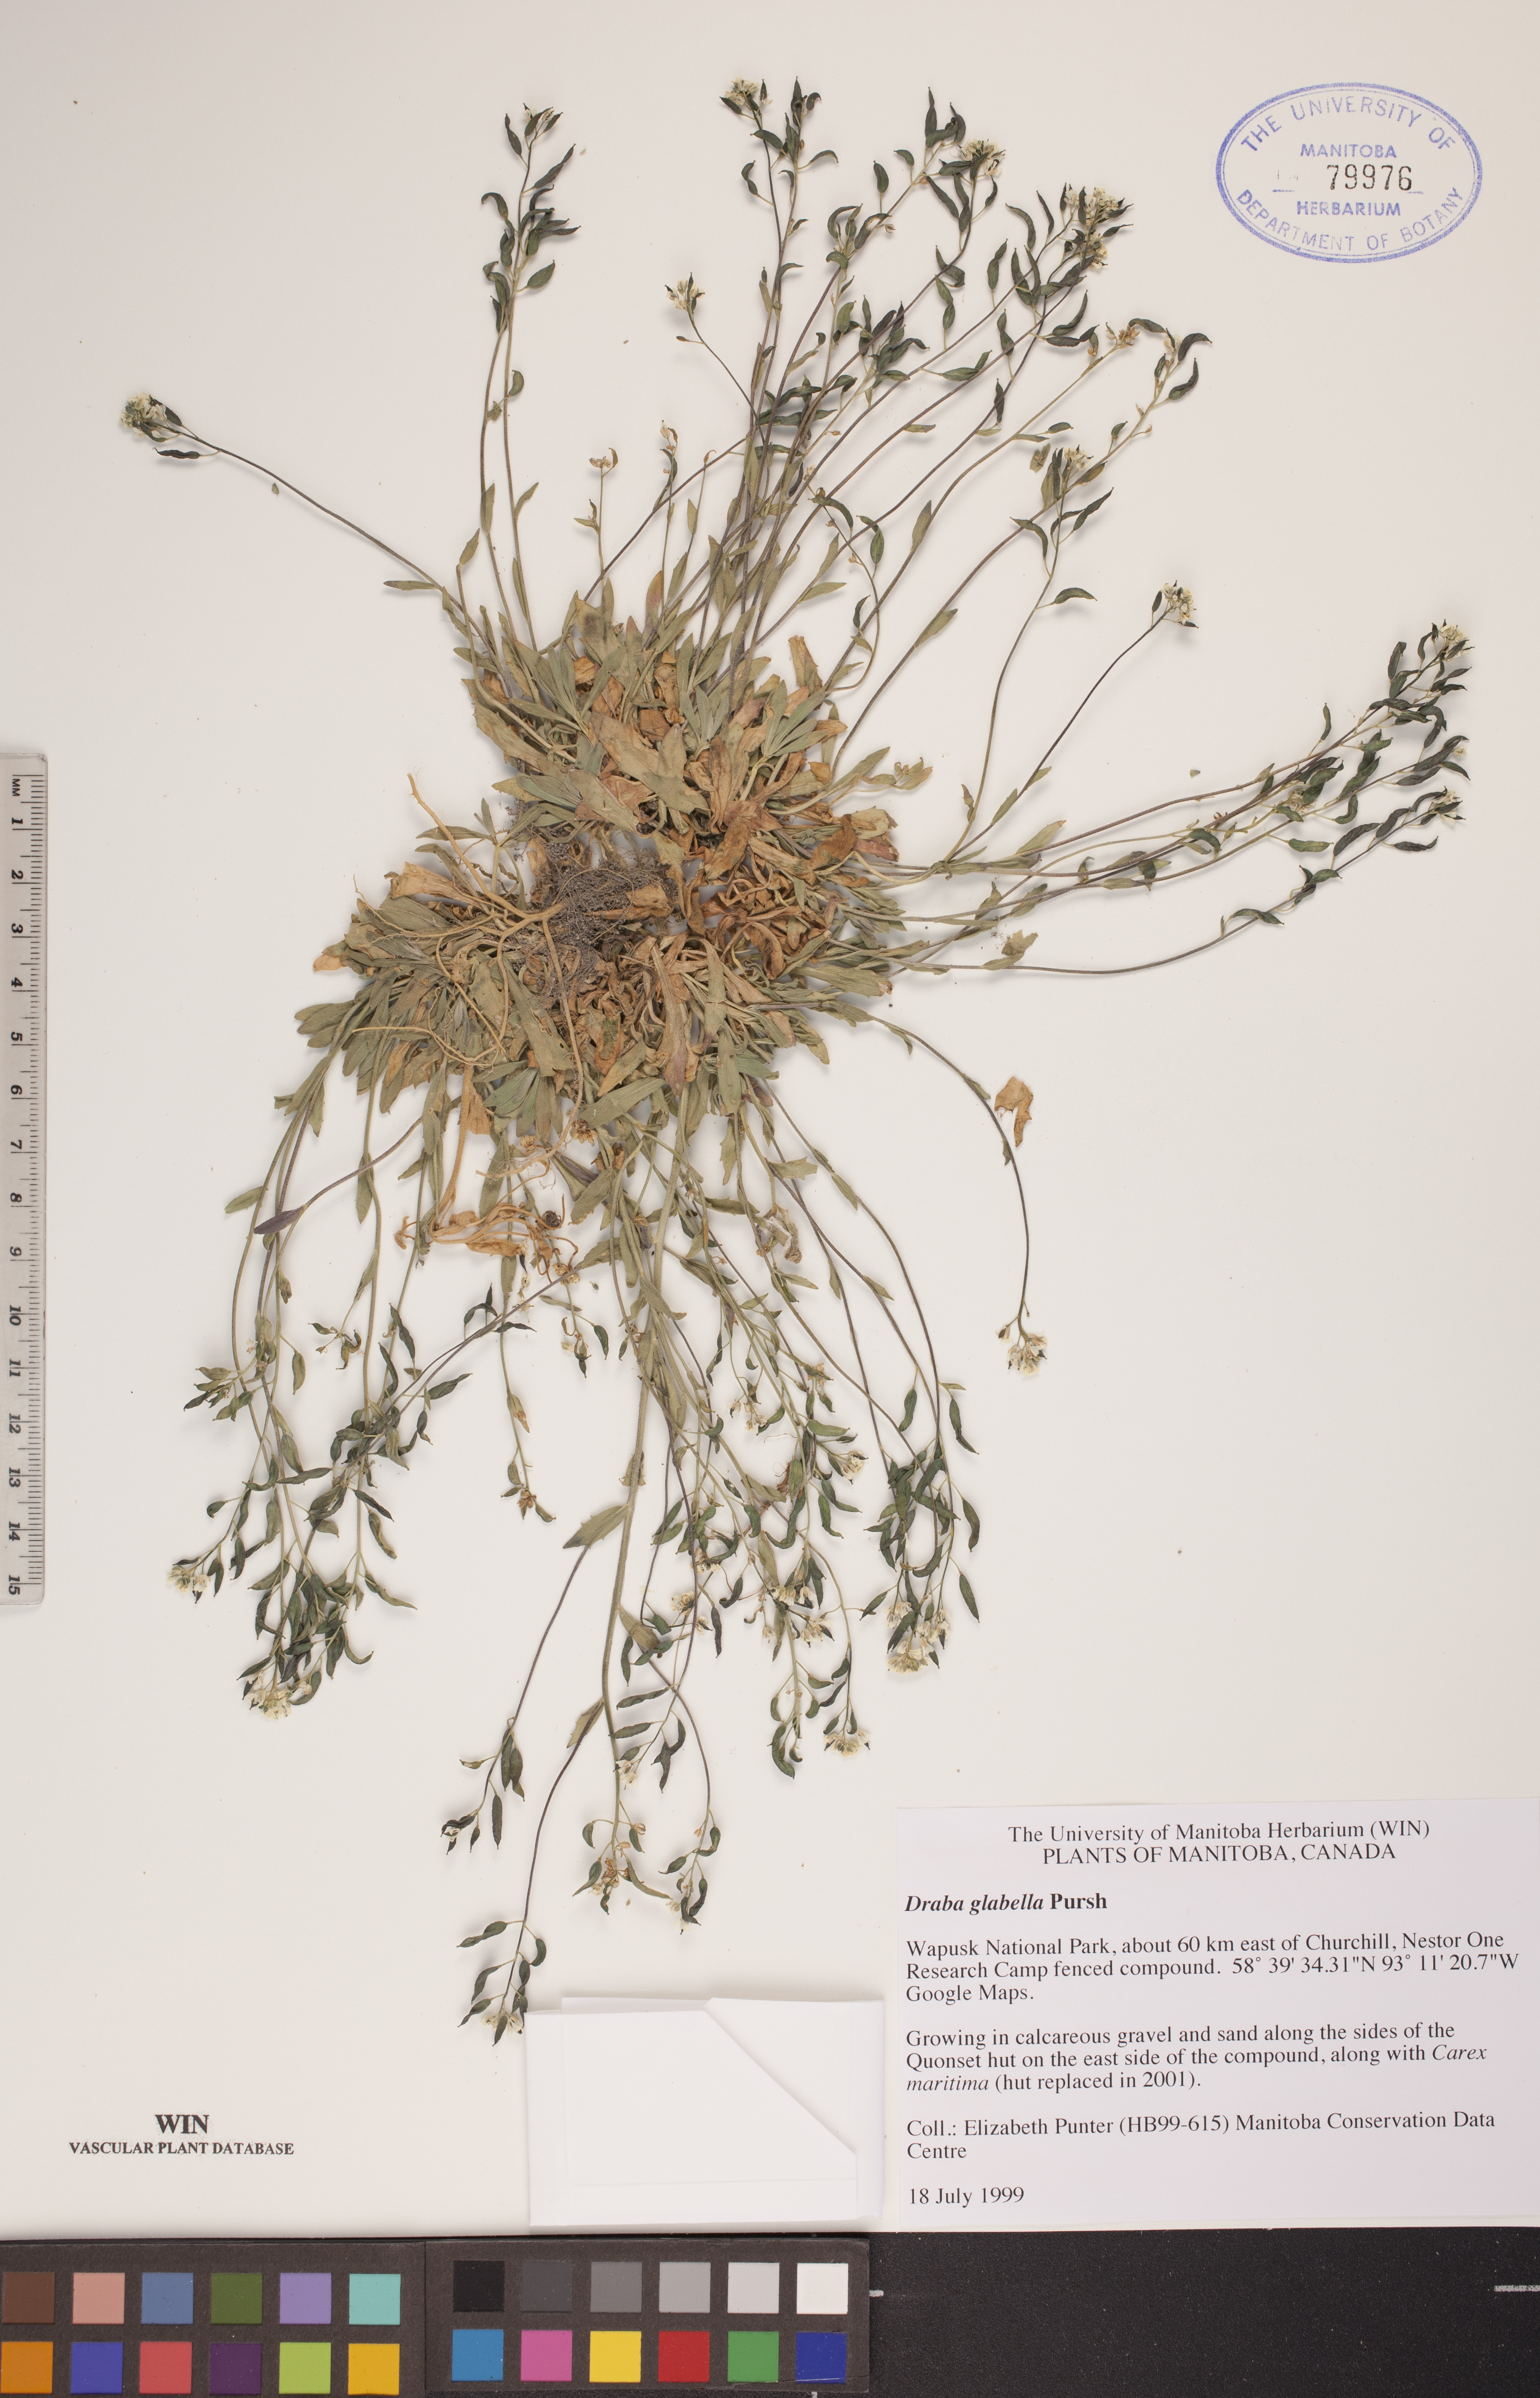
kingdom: Plantae
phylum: Tracheophyta
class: Magnoliopsida
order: Brassicales
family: Brassicaceae
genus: Draba
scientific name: Draba glabella
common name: Glaucous draba
